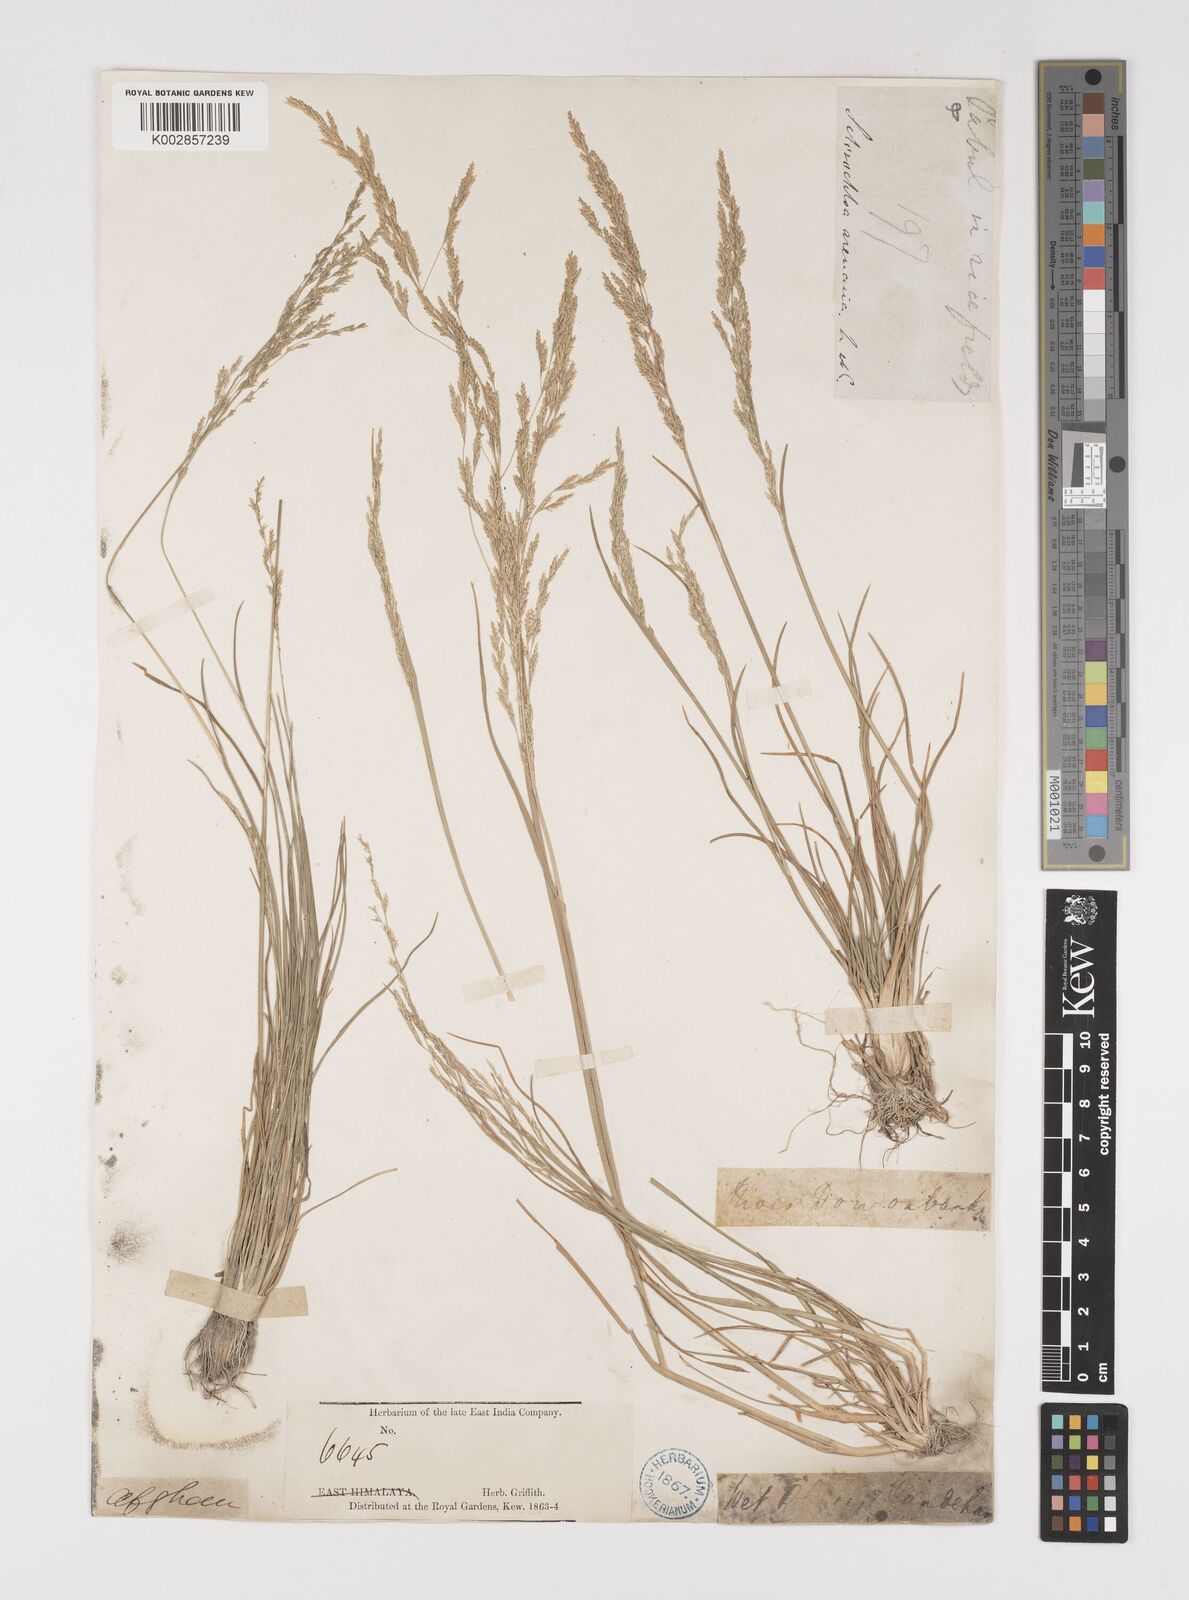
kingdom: Plantae
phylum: Tracheophyta
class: Liliopsida
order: Poales
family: Poaceae
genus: Puccinellia
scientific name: Puccinellia distans
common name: Weeping alkaligrass
